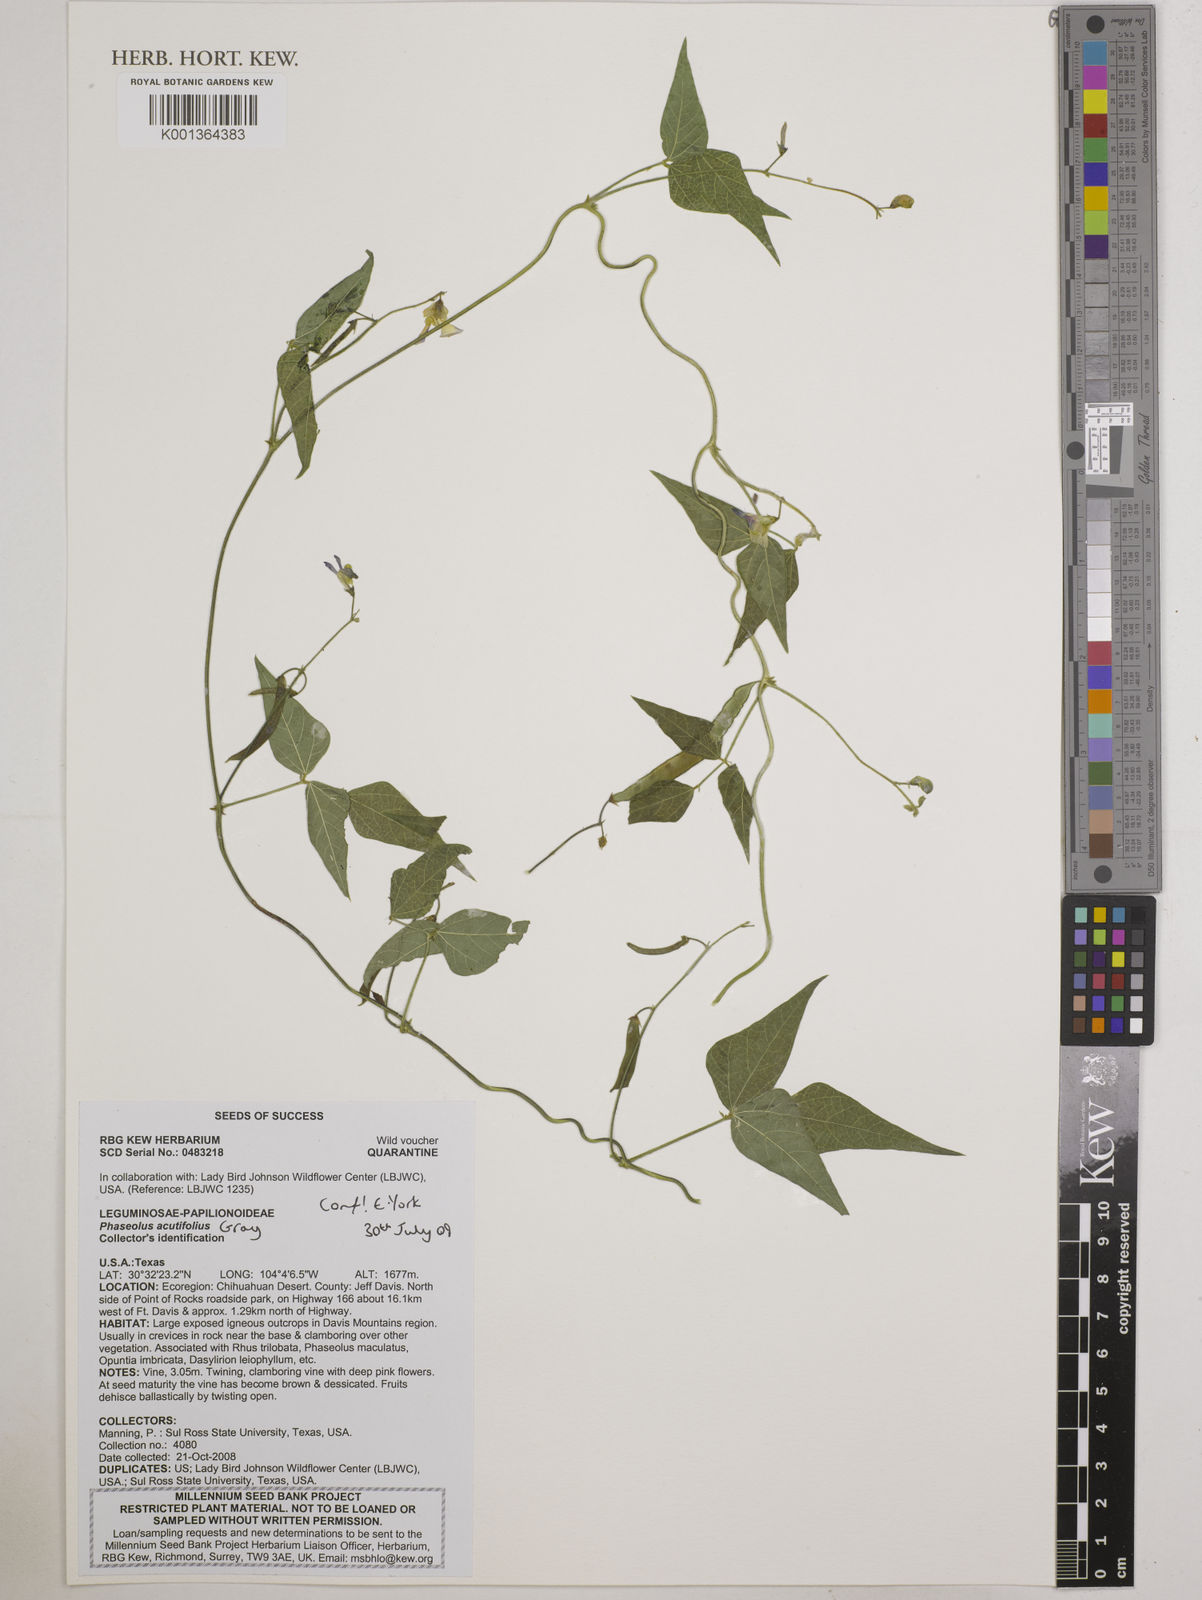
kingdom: Plantae
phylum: Tracheophyta
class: Magnoliopsida
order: Fabales
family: Fabaceae
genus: Phaseolus
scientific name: Phaseolus maculatus
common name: Metcalfe bean
